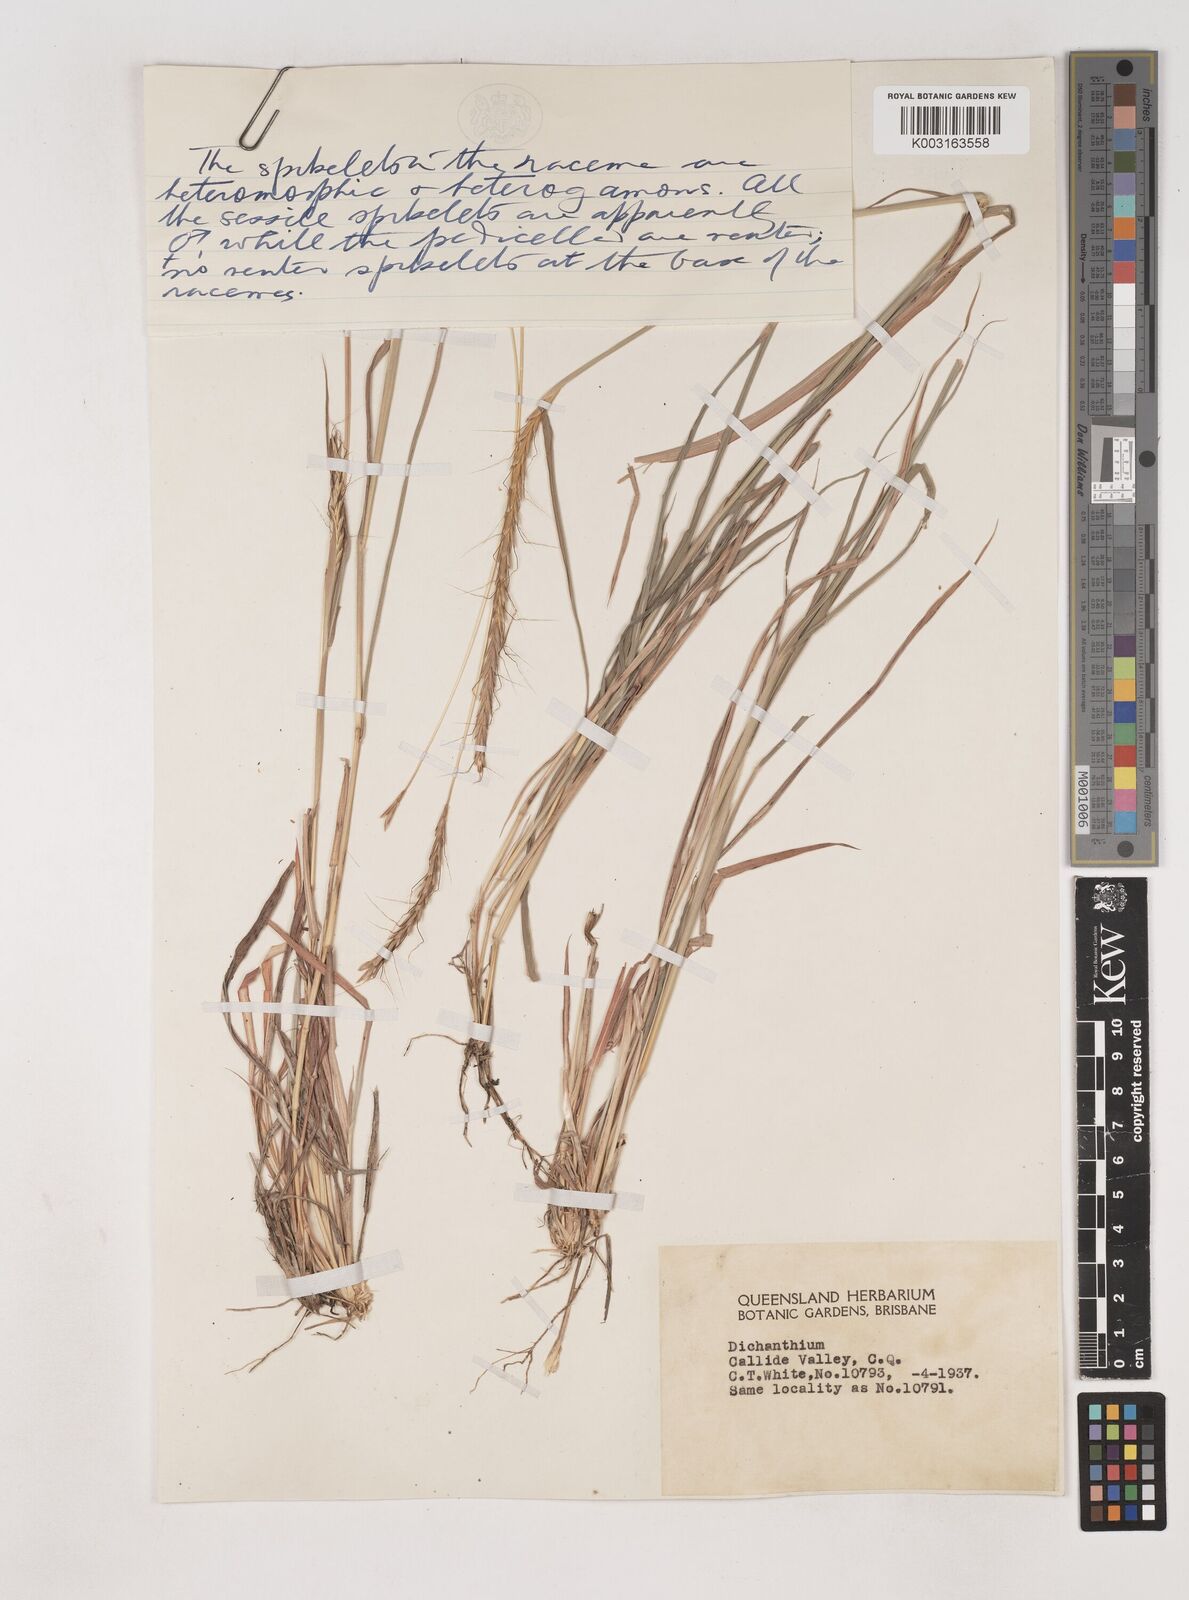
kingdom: Plantae
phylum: Tracheophyta
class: Liliopsida
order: Poales
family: Poaceae
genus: Dichanthium
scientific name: Dichanthium
